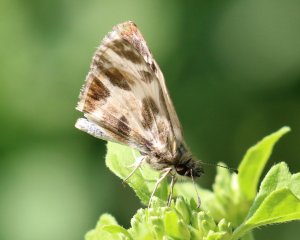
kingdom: Animalia
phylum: Arthropoda
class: Insecta
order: Lepidoptera
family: Hesperiidae
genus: Heliopetes
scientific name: Heliopetes macaira
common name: Turk's-cap White-Skipper
